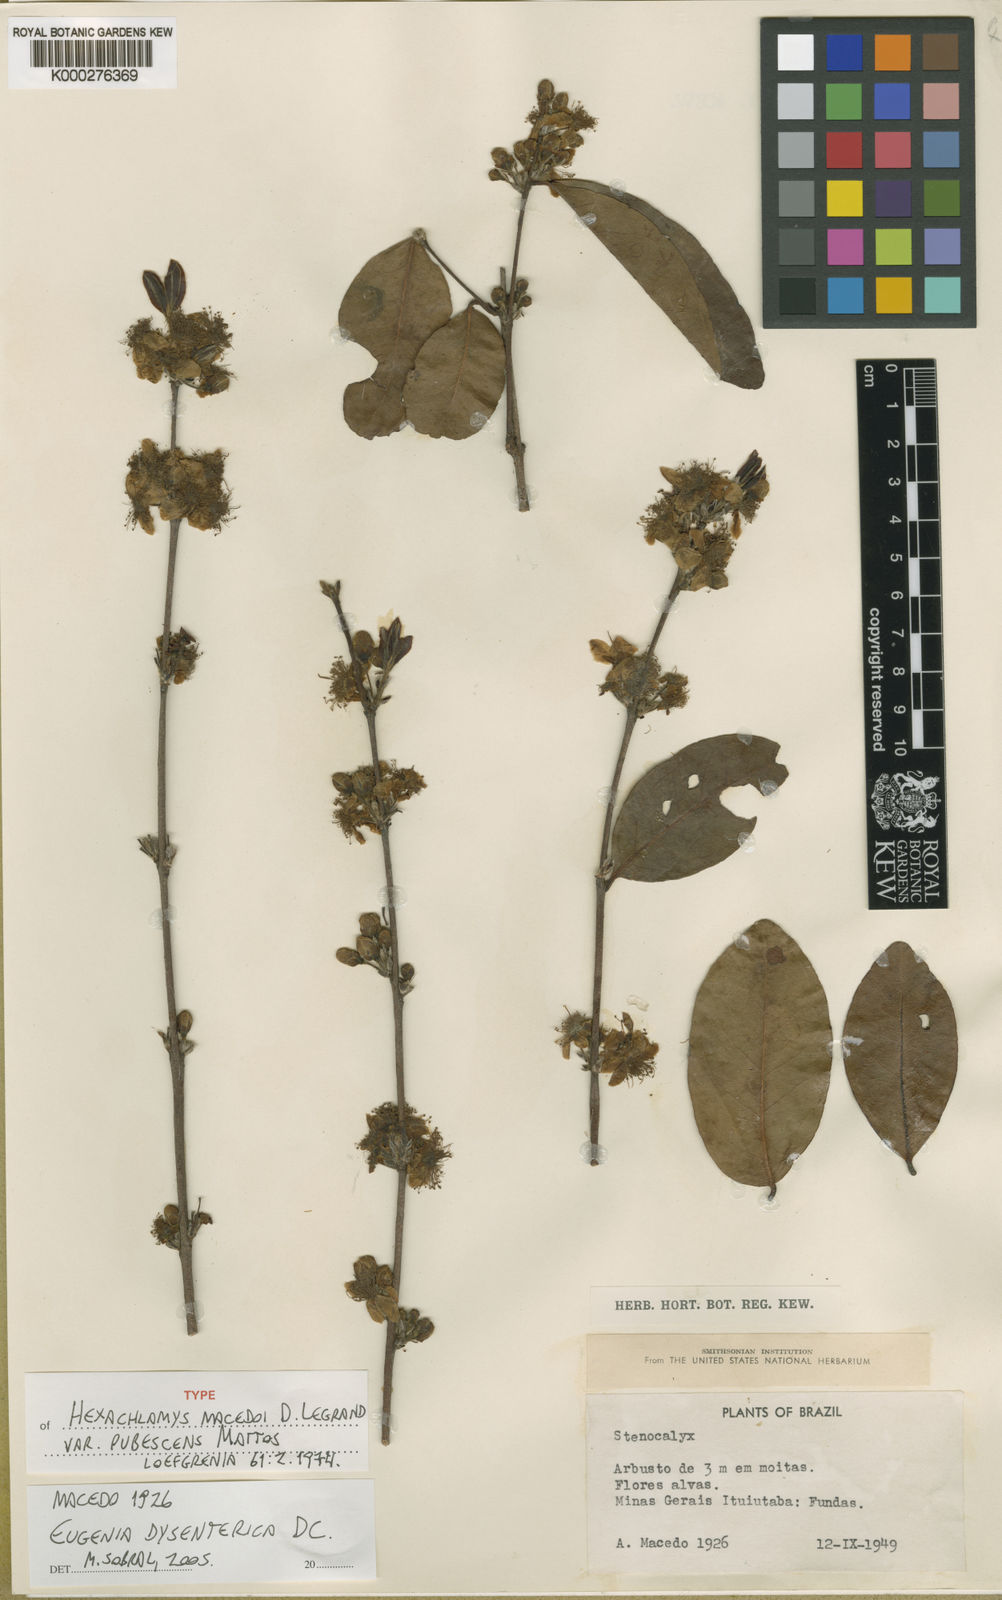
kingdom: Plantae
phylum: Tracheophyta
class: Magnoliopsida
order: Myrtales
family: Myrtaceae
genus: Eugenia
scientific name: Eugenia gemmiflora
